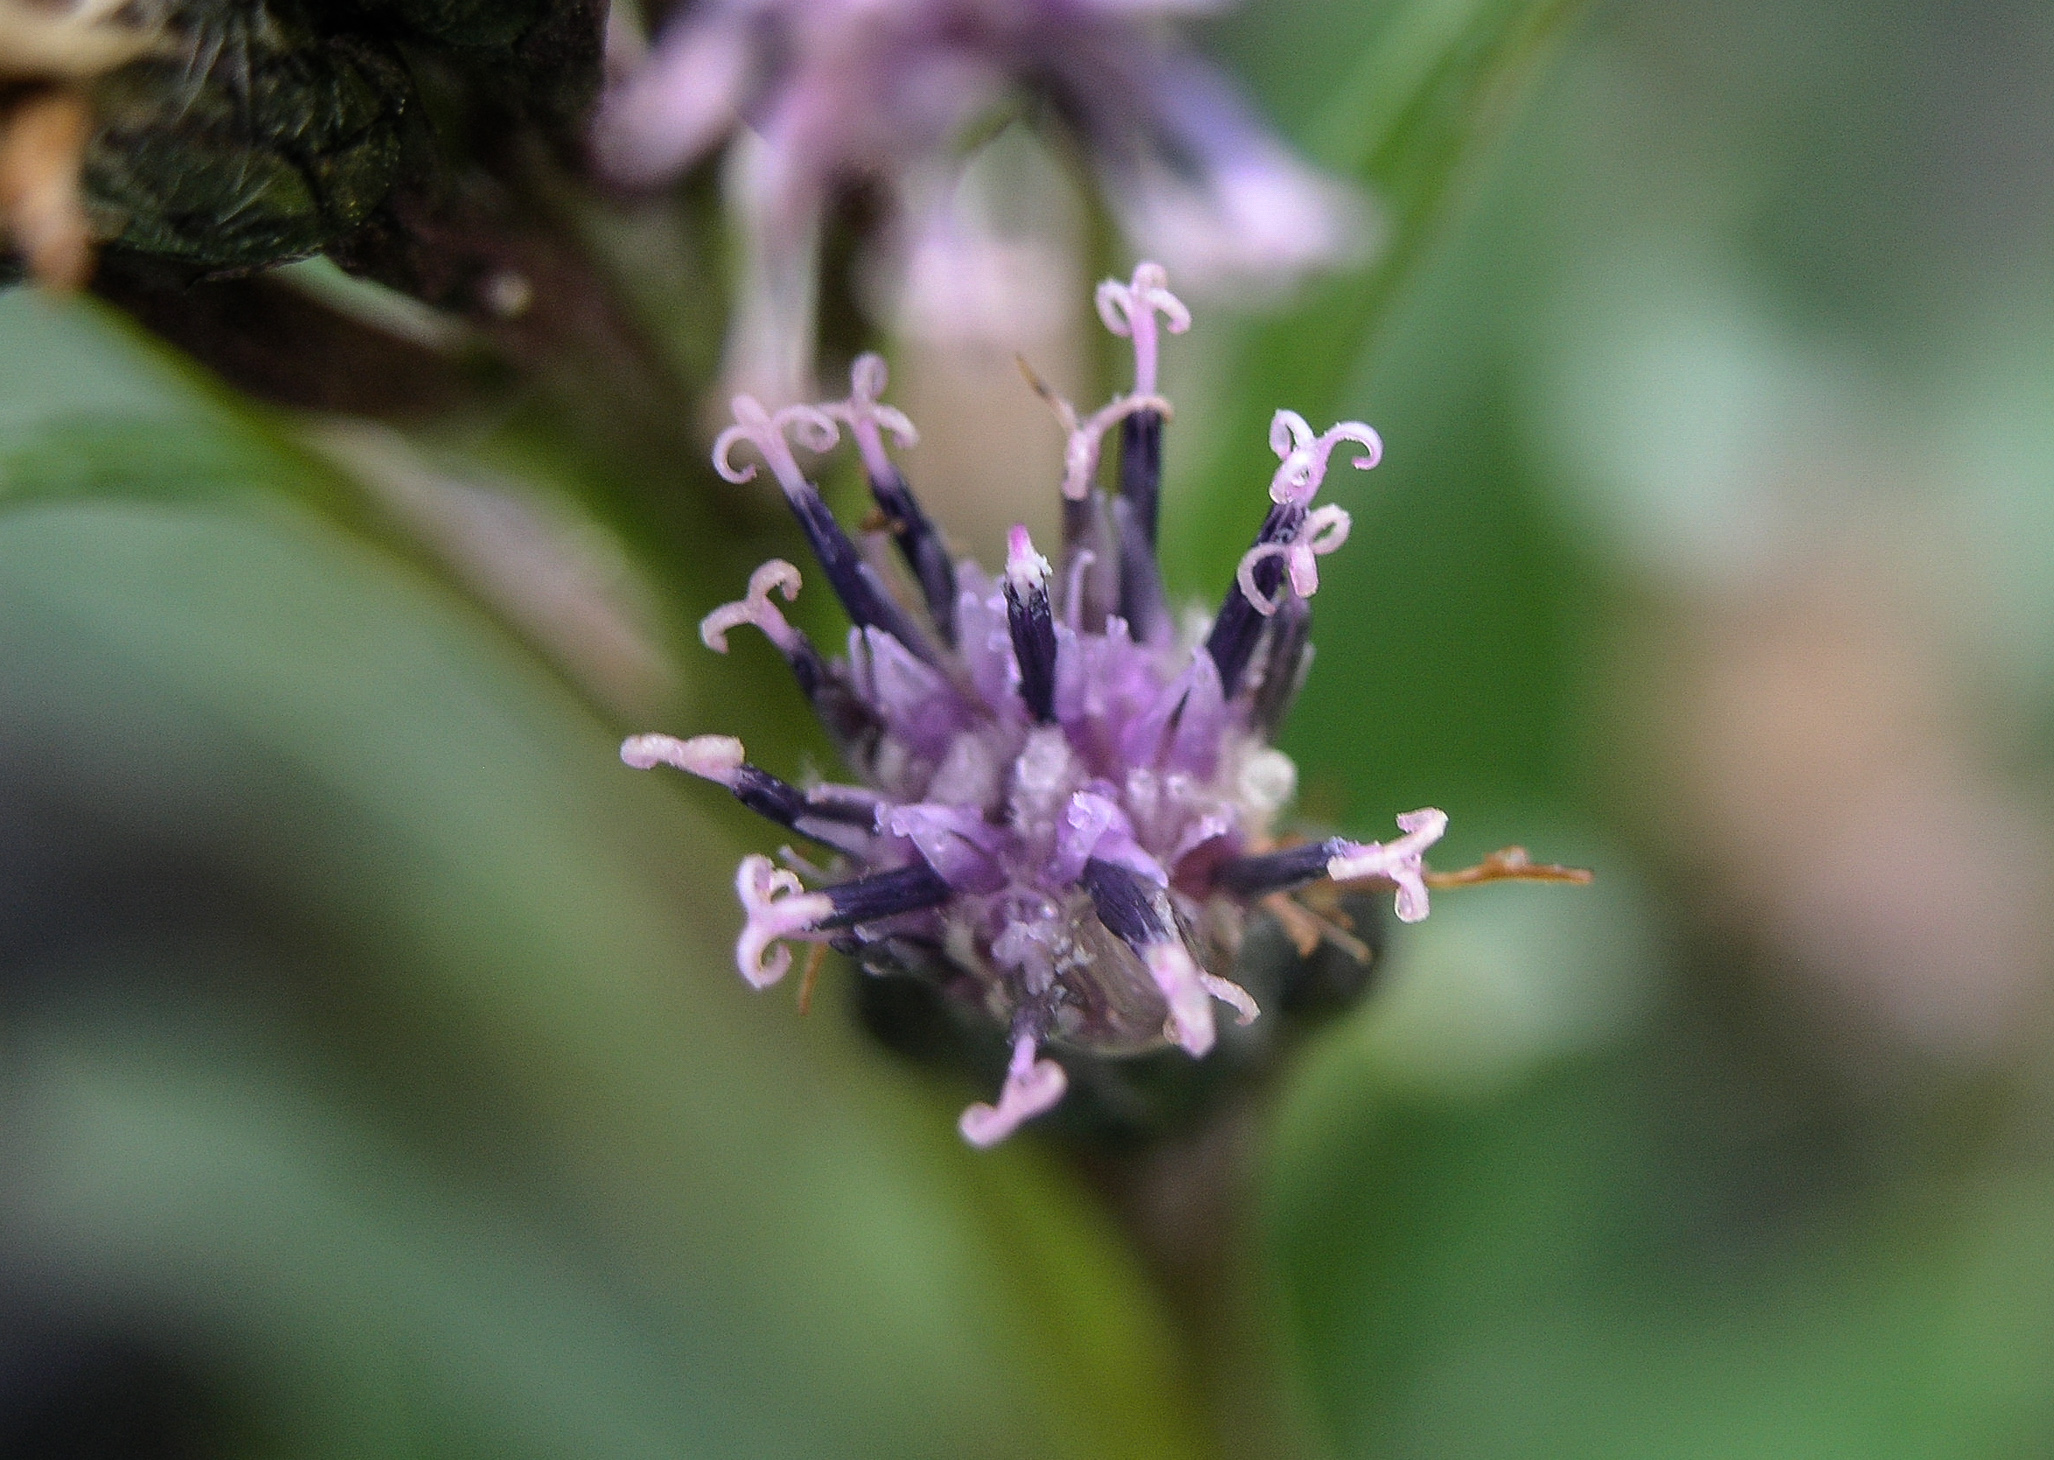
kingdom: Plantae
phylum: Tracheophyta
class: Magnoliopsida
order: Asterales
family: Asteraceae
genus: Saussurea
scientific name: Saussurea alpina
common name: Alpine saw-wort
